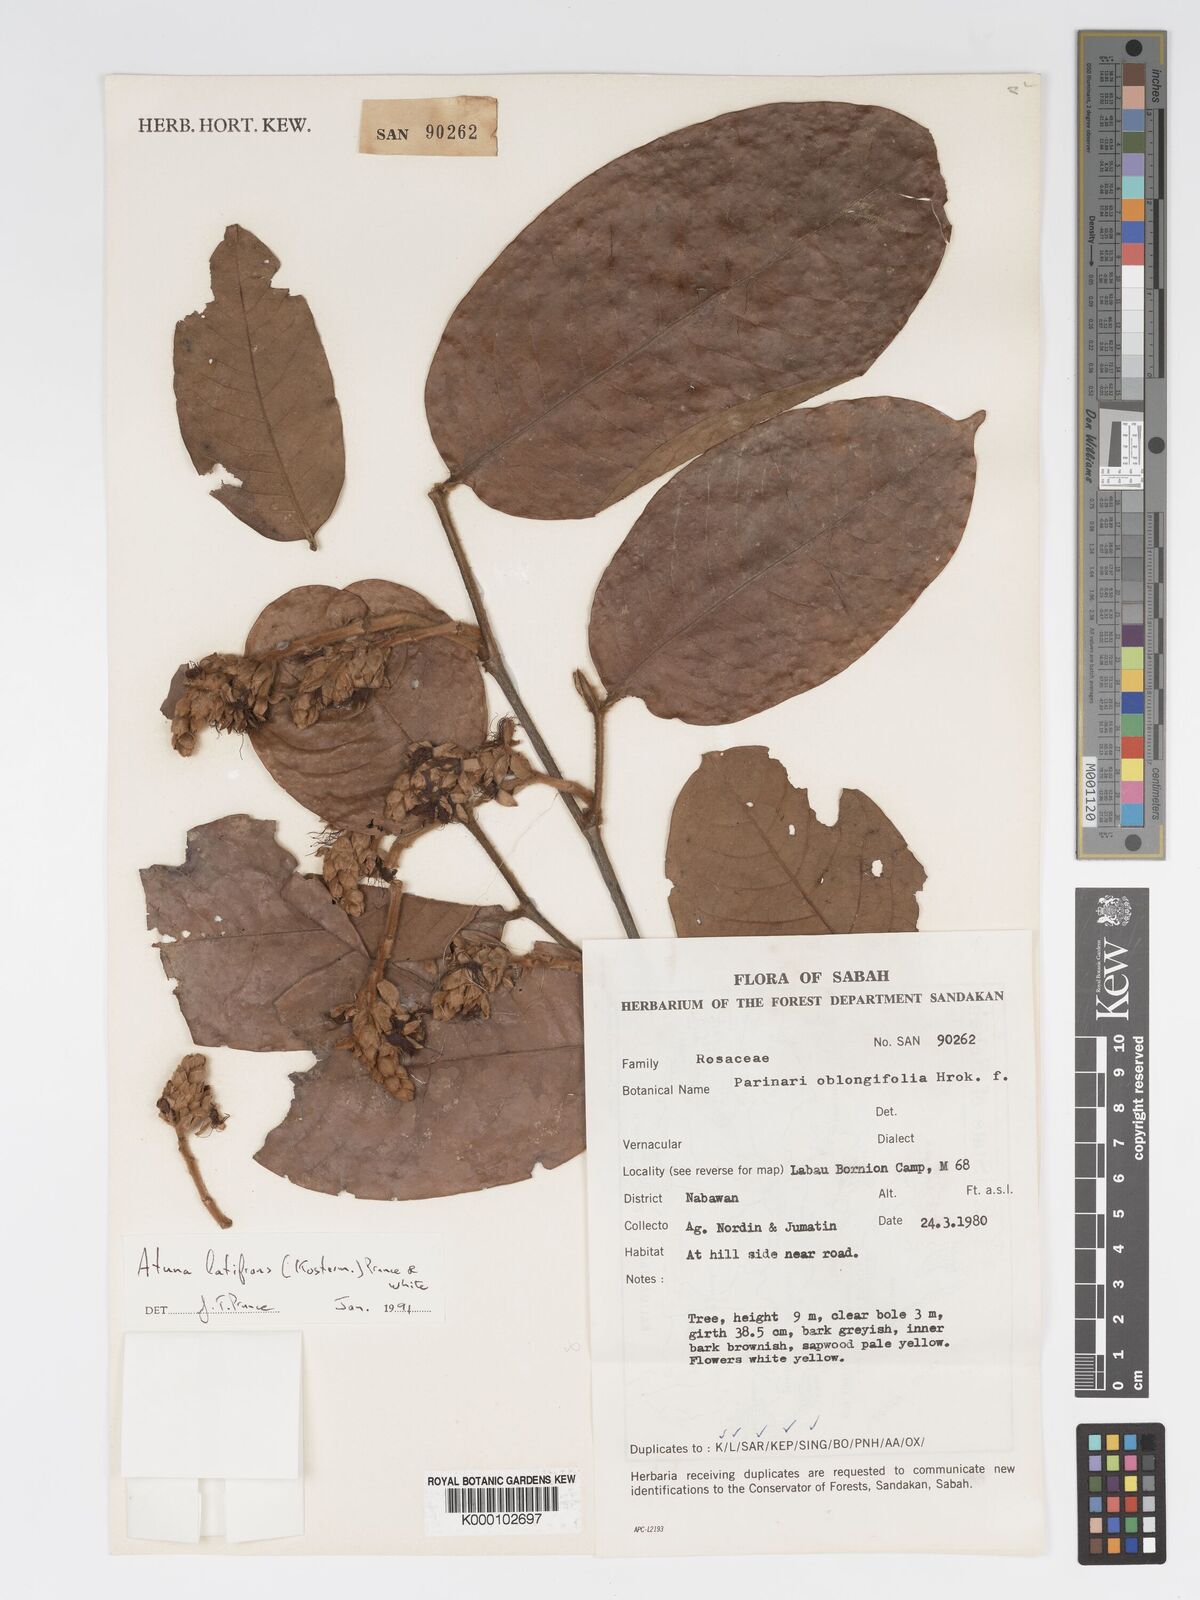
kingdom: Plantae
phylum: Tracheophyta
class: Magnoliopsida
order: Malpighiales
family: Chrysobalanaceae
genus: Atuna
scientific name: Atuna latifrons
